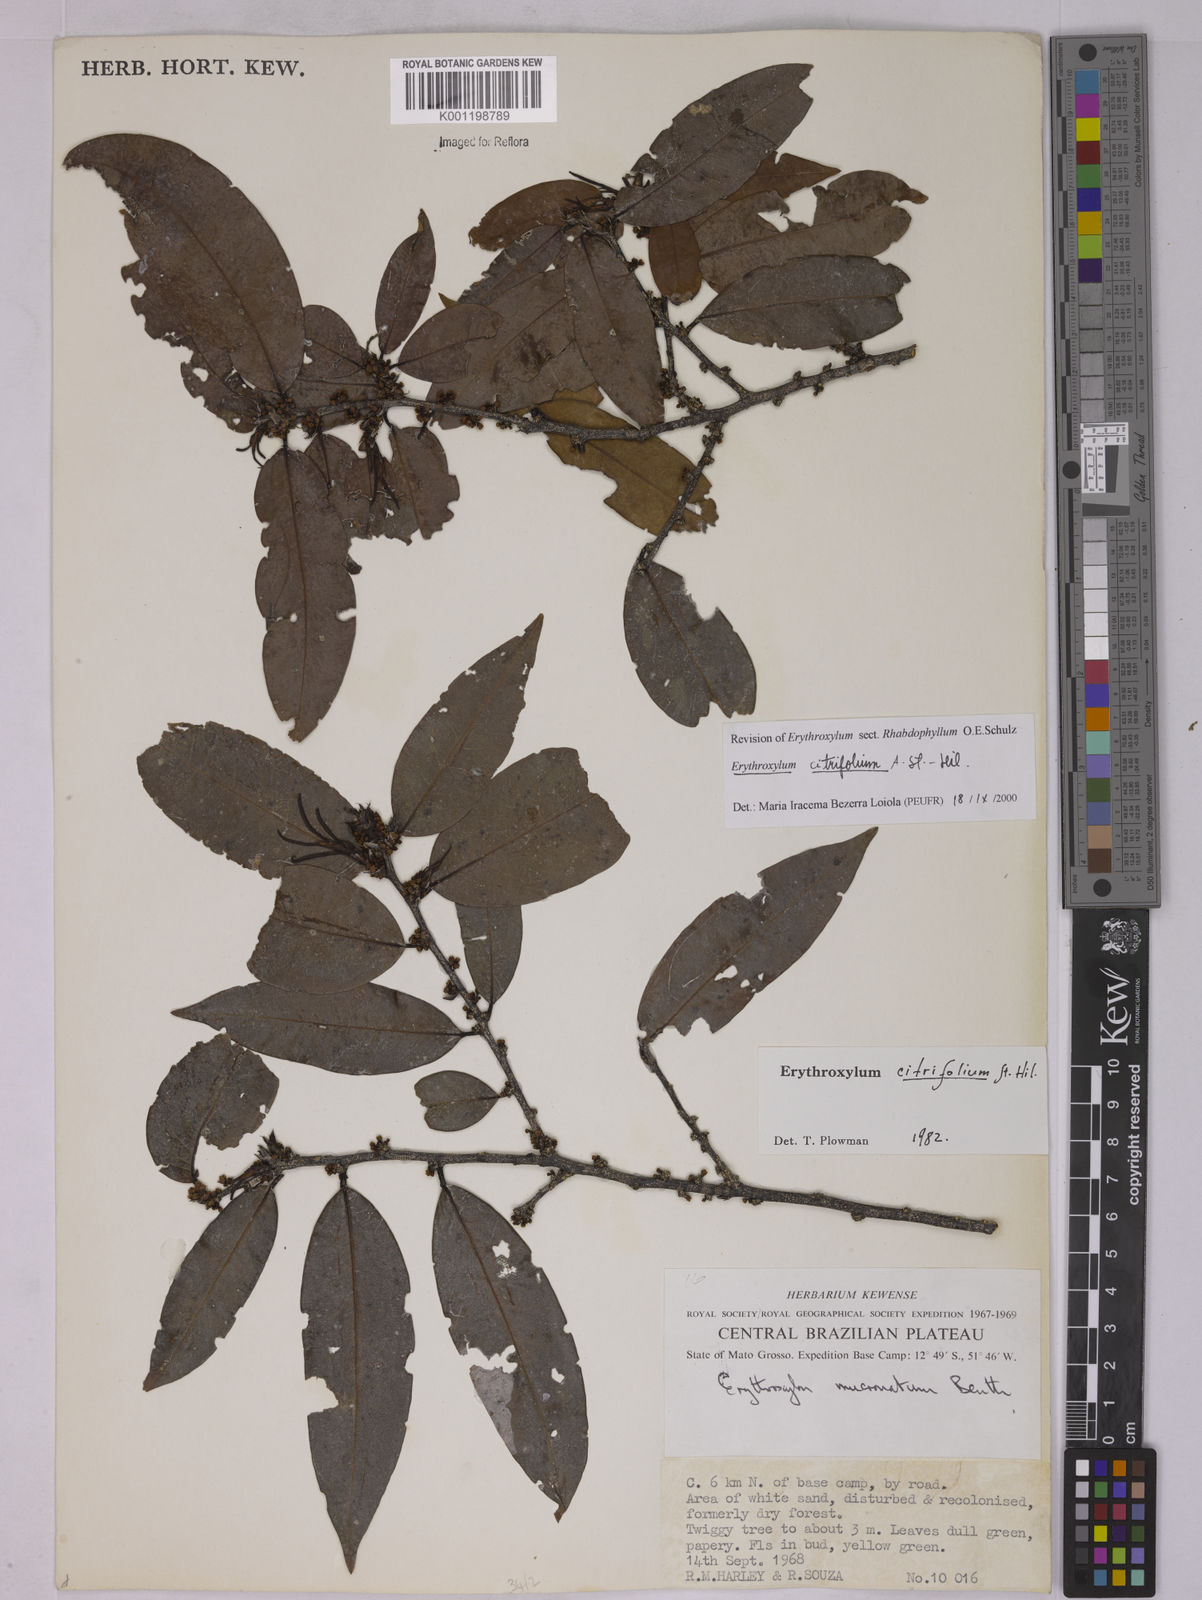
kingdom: Plantae
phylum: Tracheophyta
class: Magnoliopsida
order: Malpighiales
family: Erythroxylaceae
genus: Erythroxylum
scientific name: Erythroxylum citrifolium
